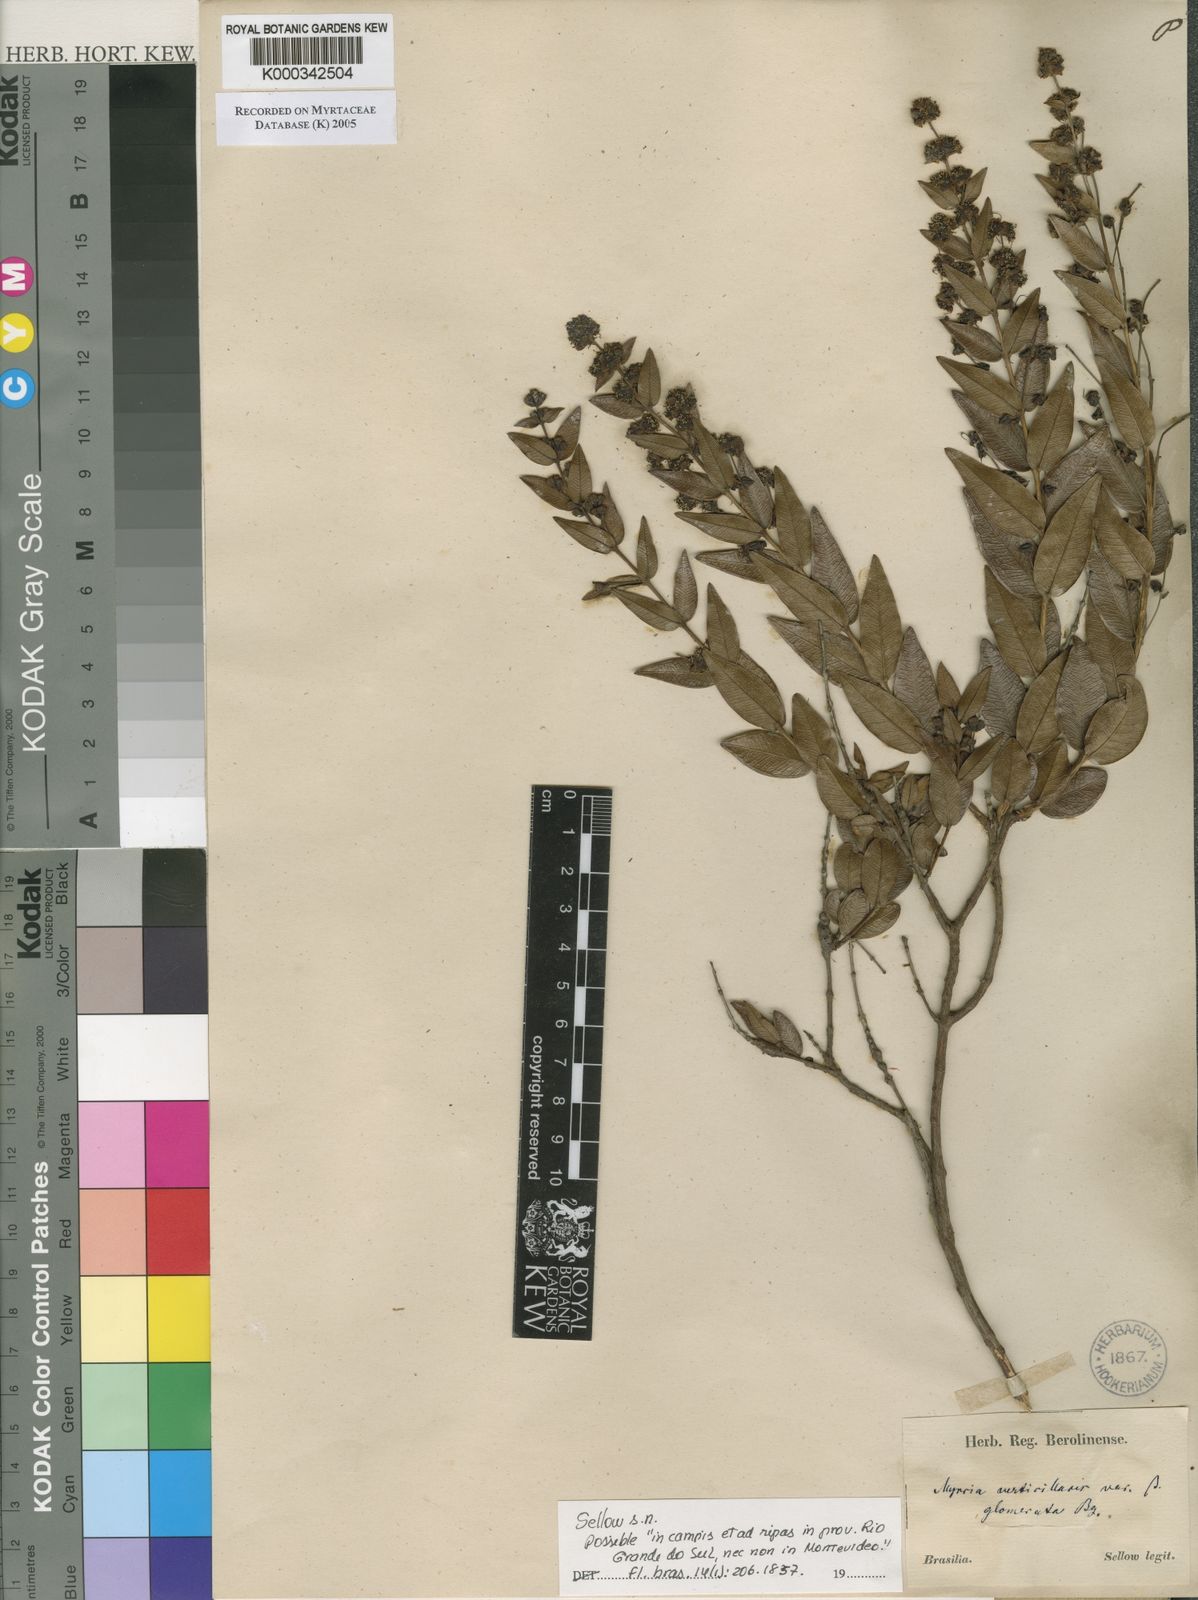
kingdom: Plantae
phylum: Tracheophyta
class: Magnoliopsida
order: Myrtales
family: Myrtaceae
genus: Myrcia
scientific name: Myrcia verticillaris
